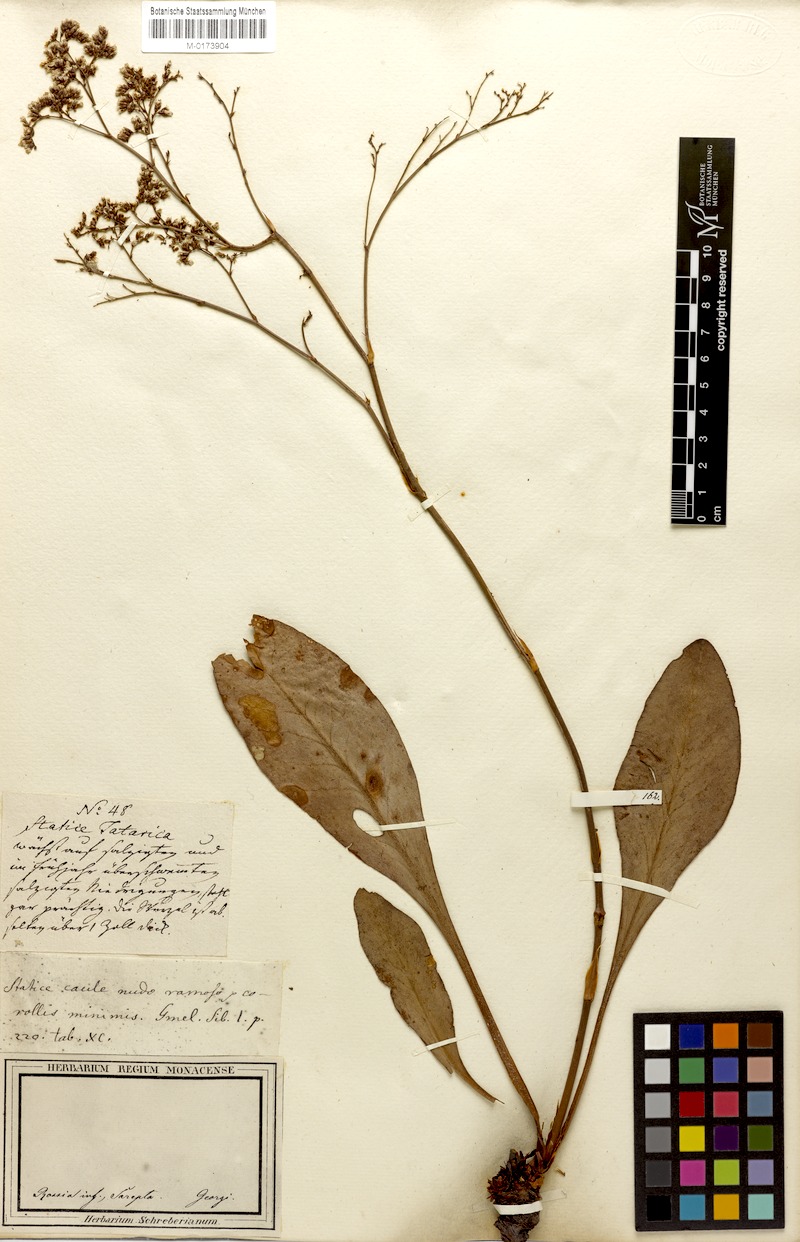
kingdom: Plantae
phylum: Tracheophyta
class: Magnoliopsida
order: Caryophyllales
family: Plumbaginaceae
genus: Limonium
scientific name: Limonium gmelini
